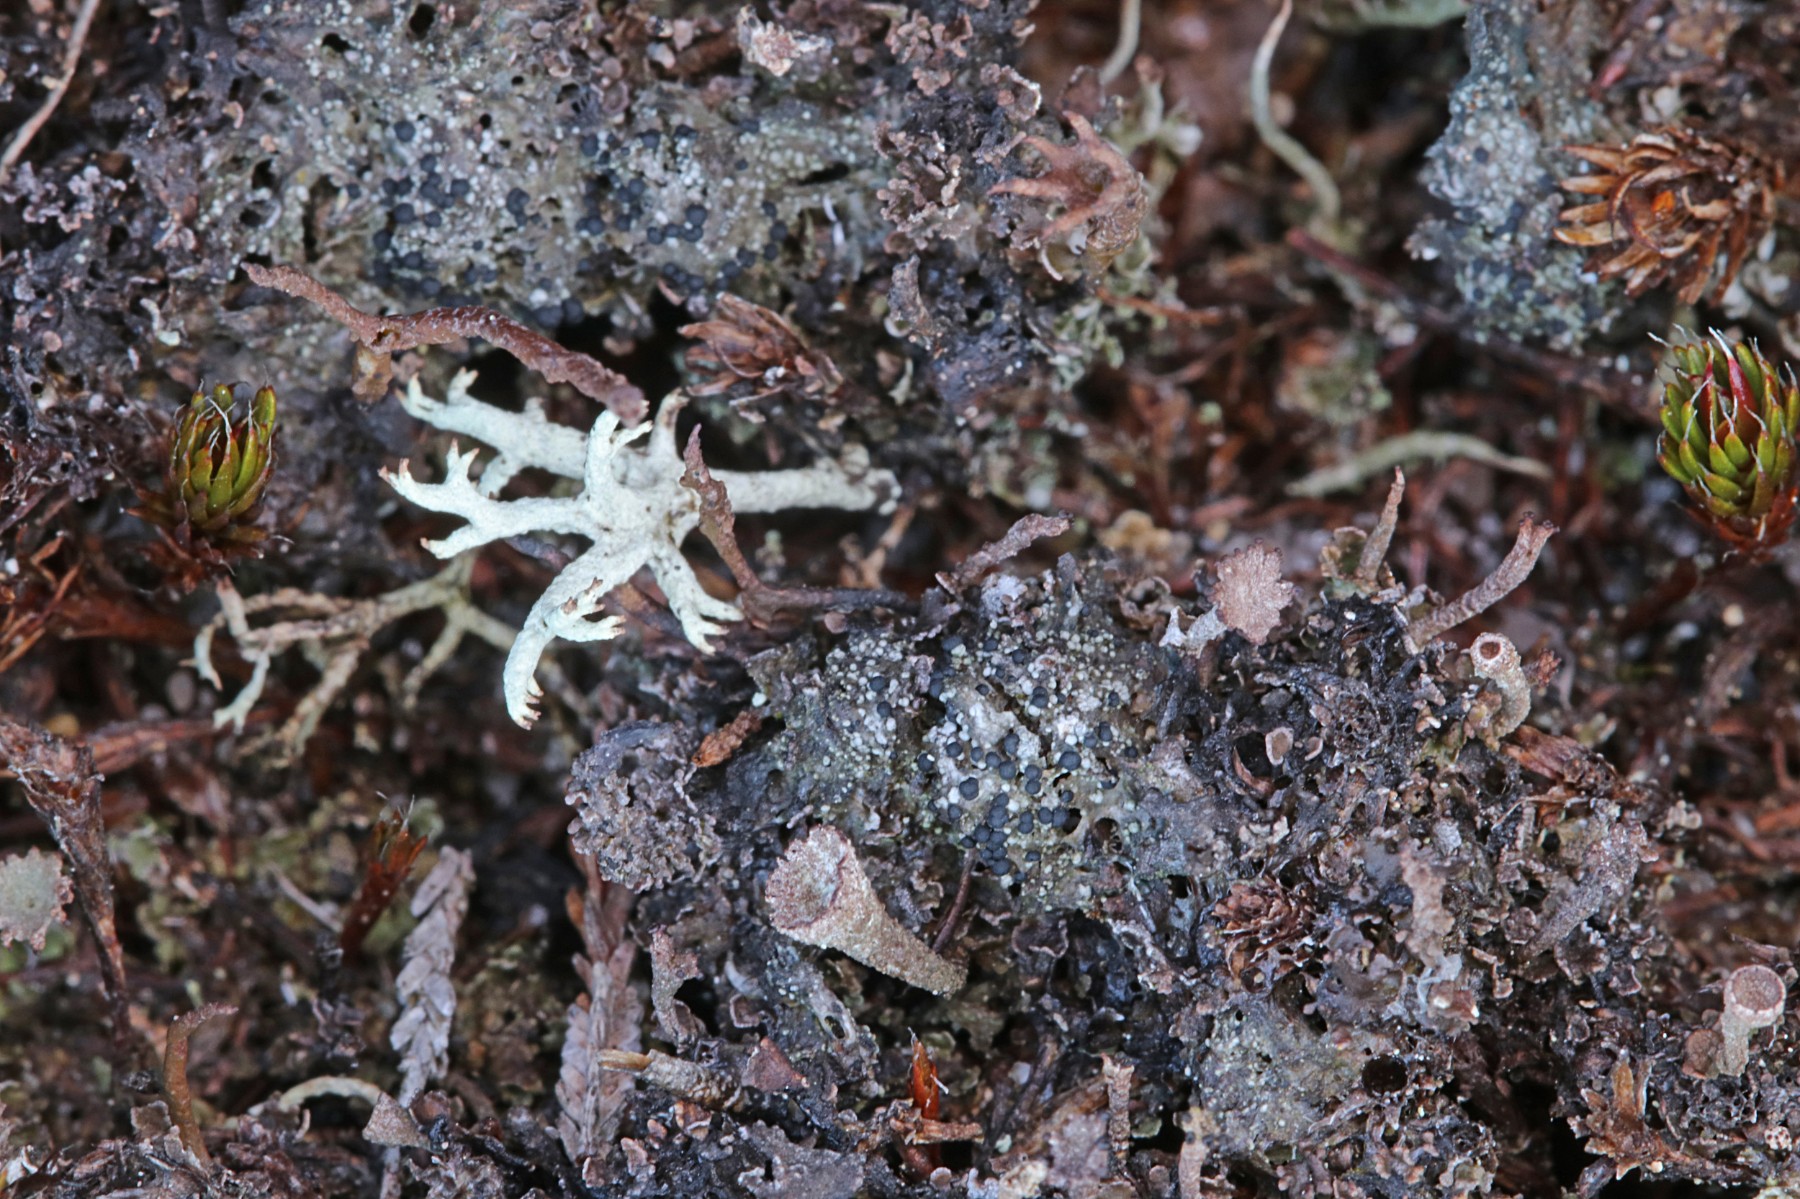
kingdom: Fungi
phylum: Ascomycota
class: Lecanoromycetes
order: Lecanorales
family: Byssolomataceae
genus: Micarea
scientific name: Micarea lignaria
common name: tørve-knaplav
